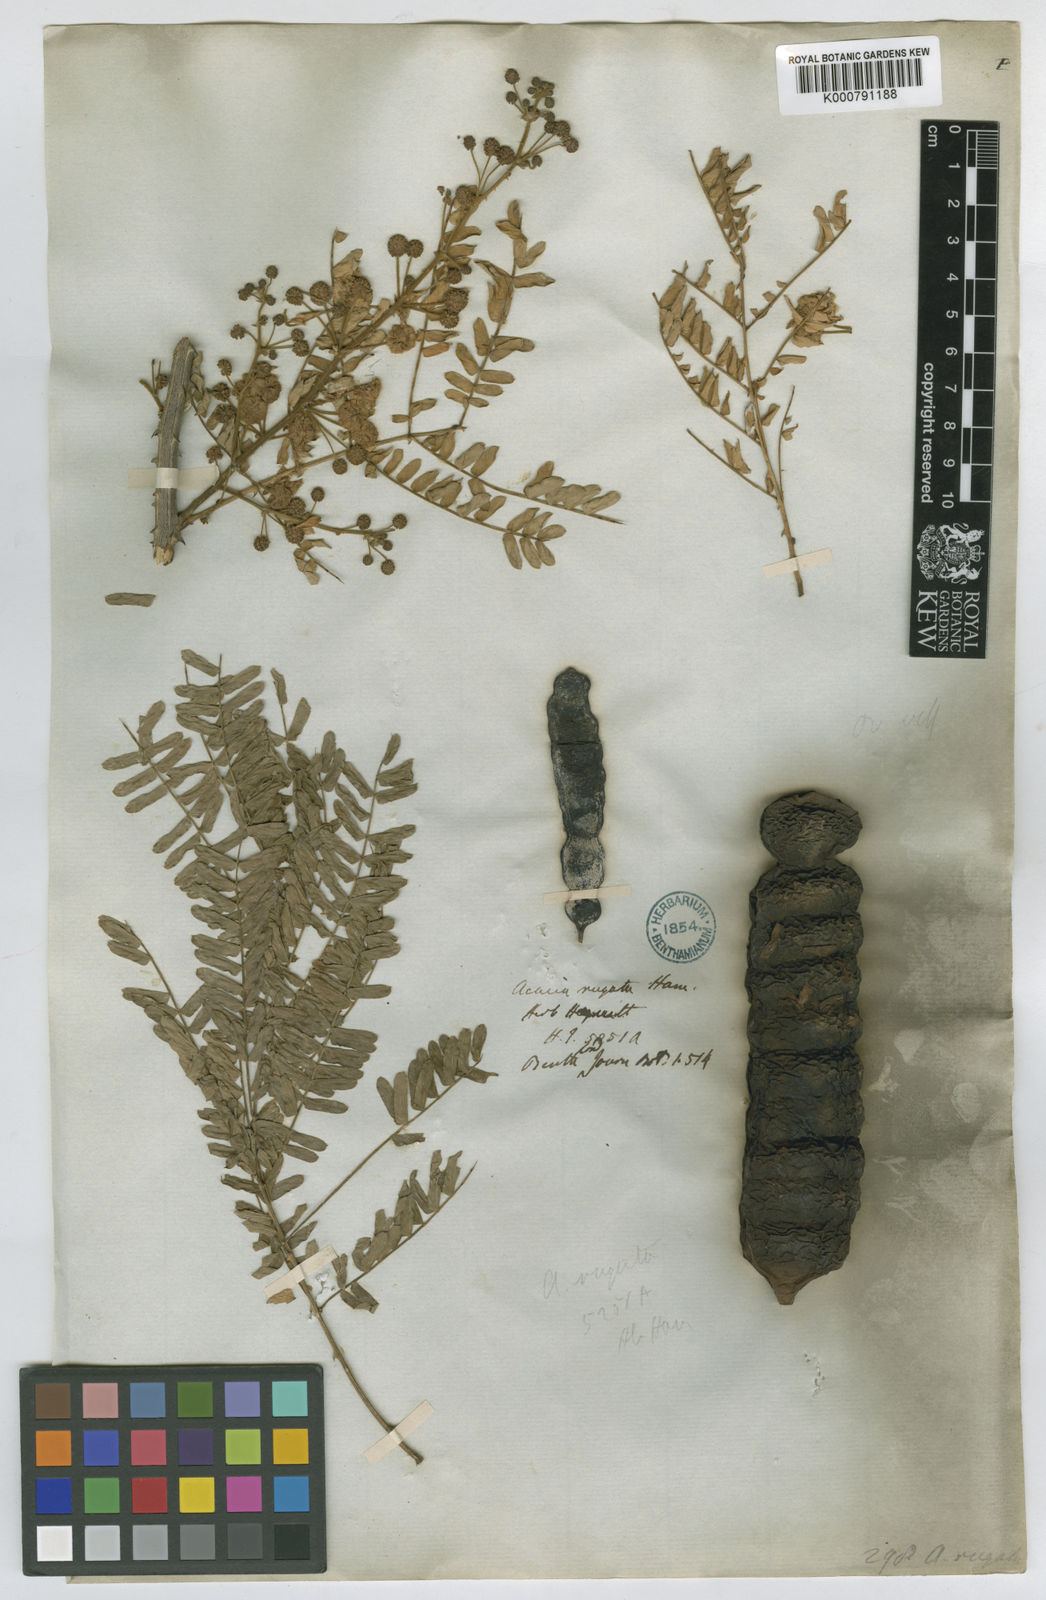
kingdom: Plantae
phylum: Tracheophyta
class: Magnoliopsida
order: Fabales
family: Fabaceae
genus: Senegalia
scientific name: Senegalia rugata
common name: Soap-pod
